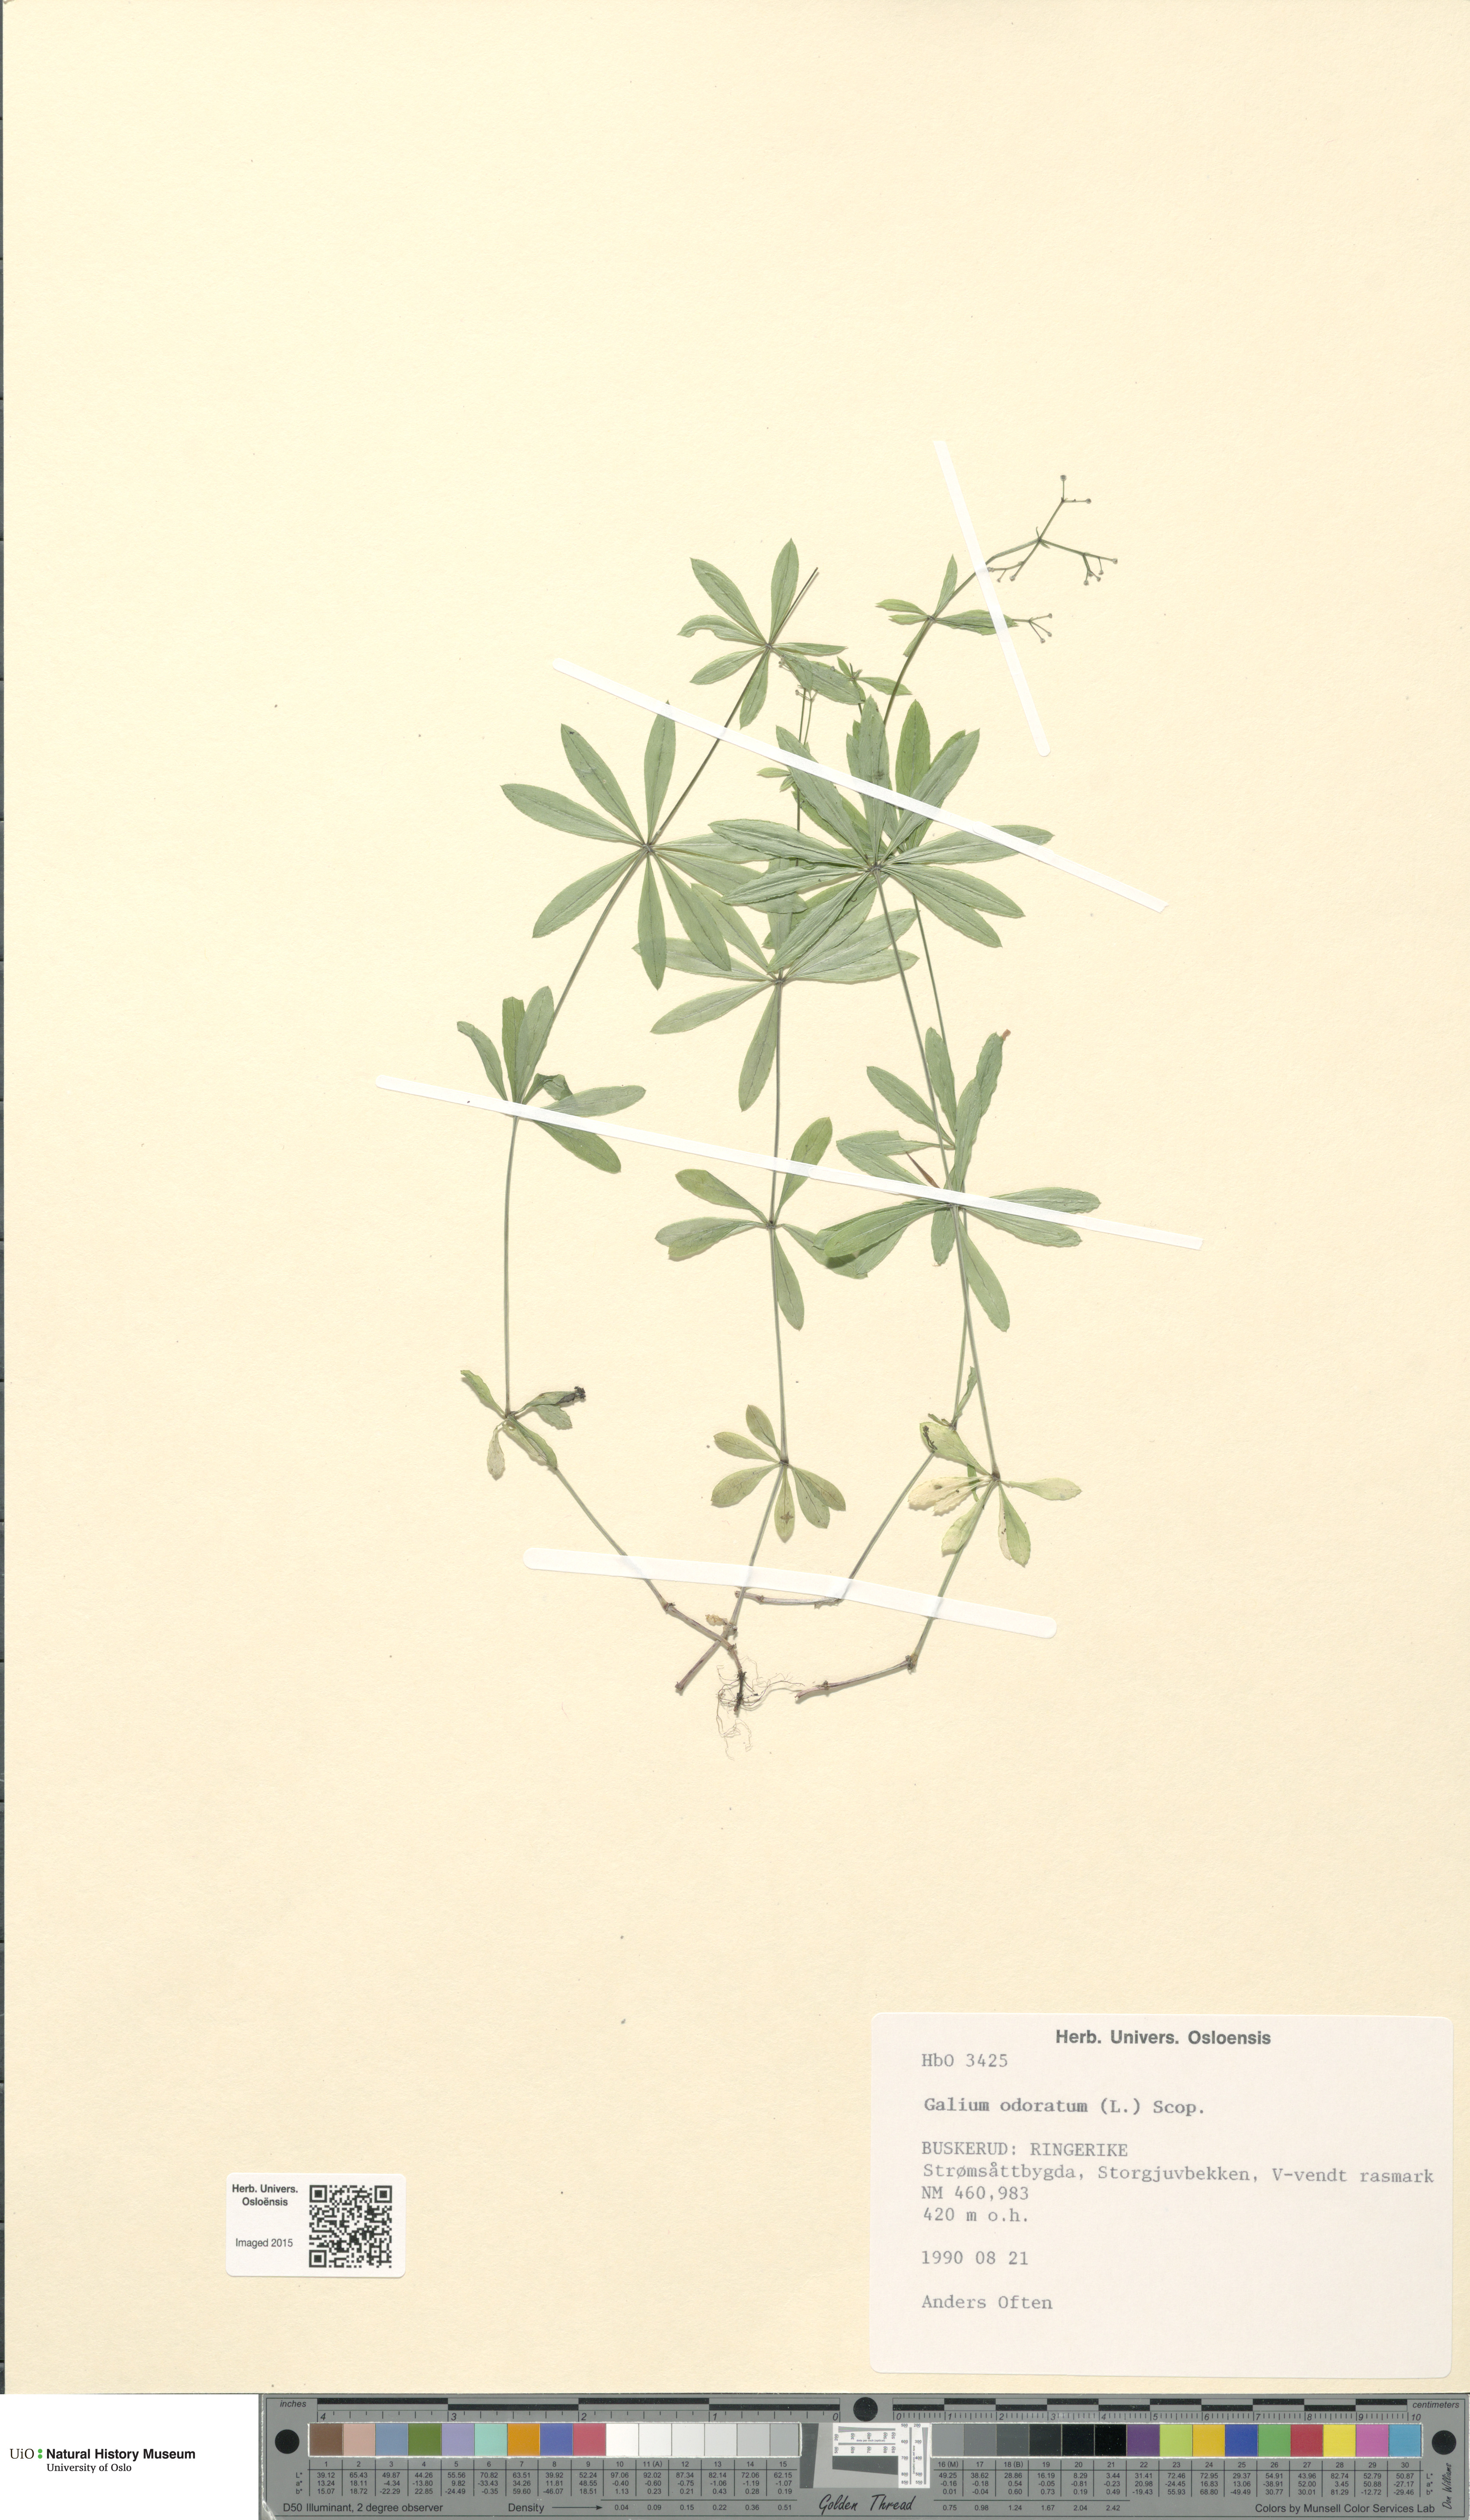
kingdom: Plantae
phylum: Tracheophyta
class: Magnoliopsida
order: Gentianales
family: Rubiaceae
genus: Galium
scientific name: Galium odoratum
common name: Sweet woodruff
